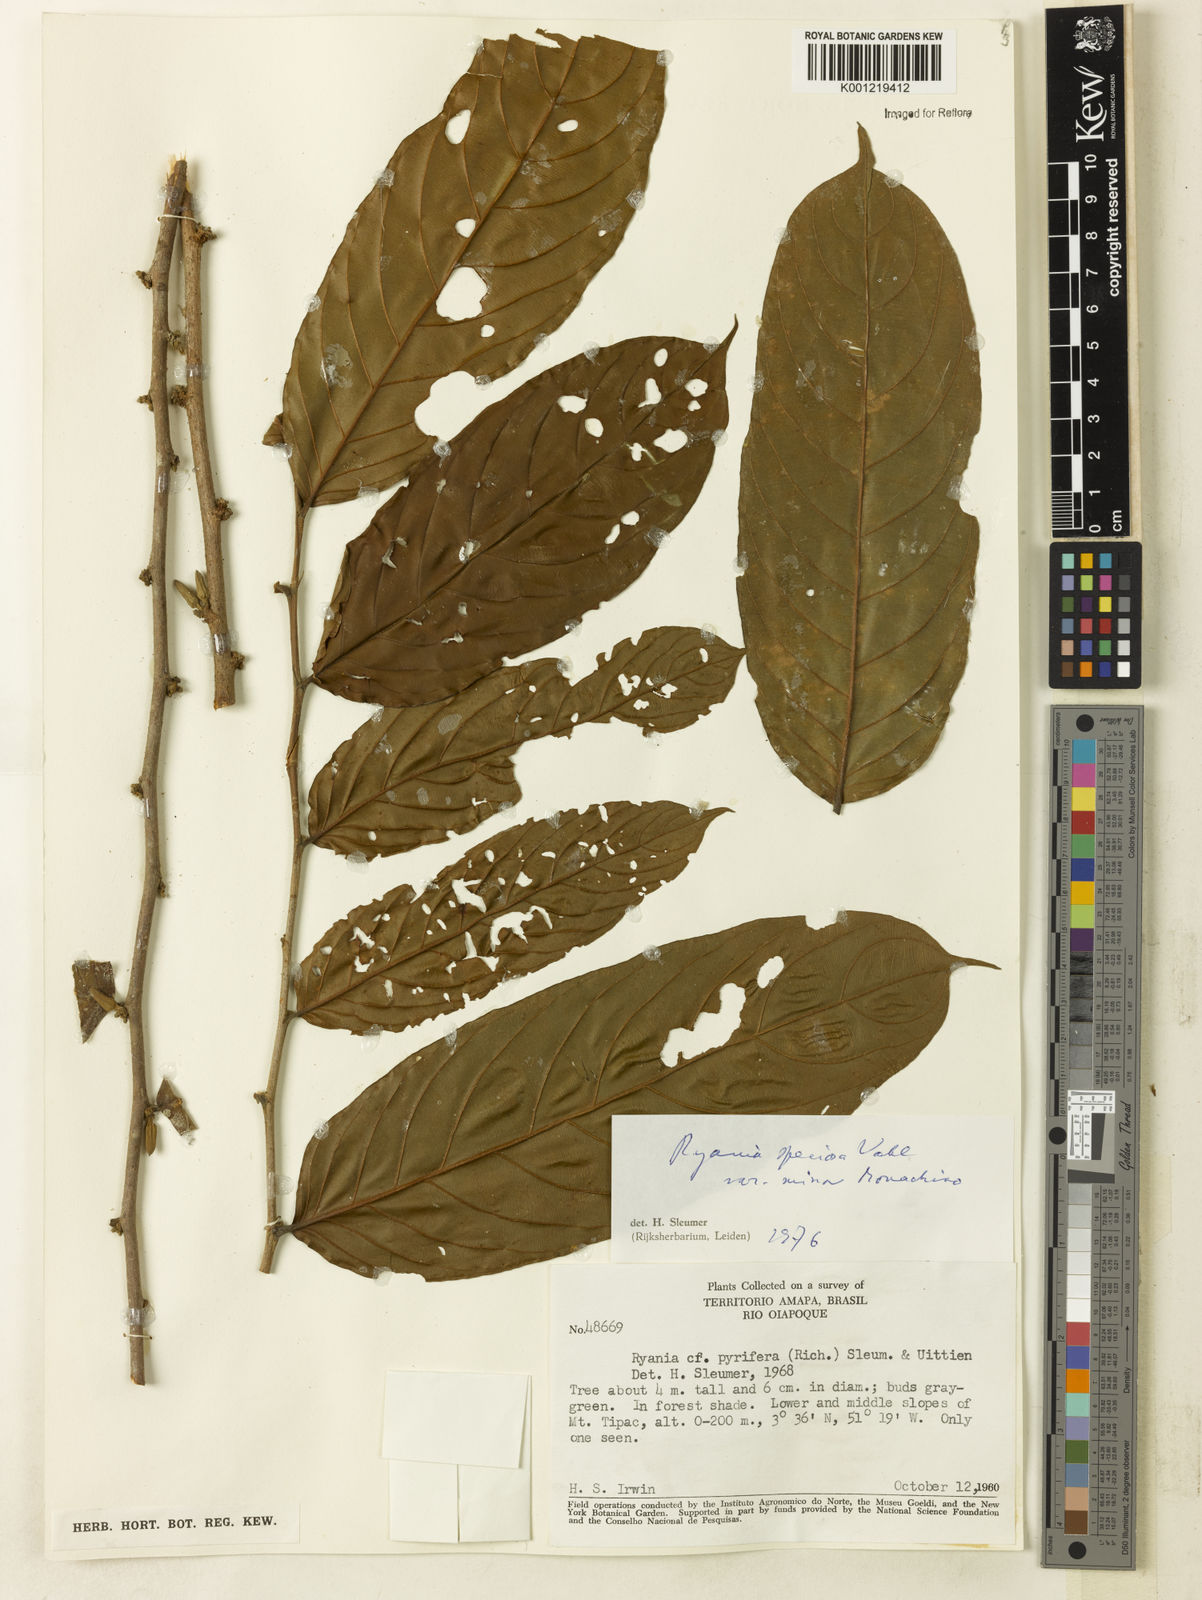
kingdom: Plantae
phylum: Tracheophyta
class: Magnoliopsida
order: Malpighiales
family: Salicaceae
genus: Ryania
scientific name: Ryania speciosa
